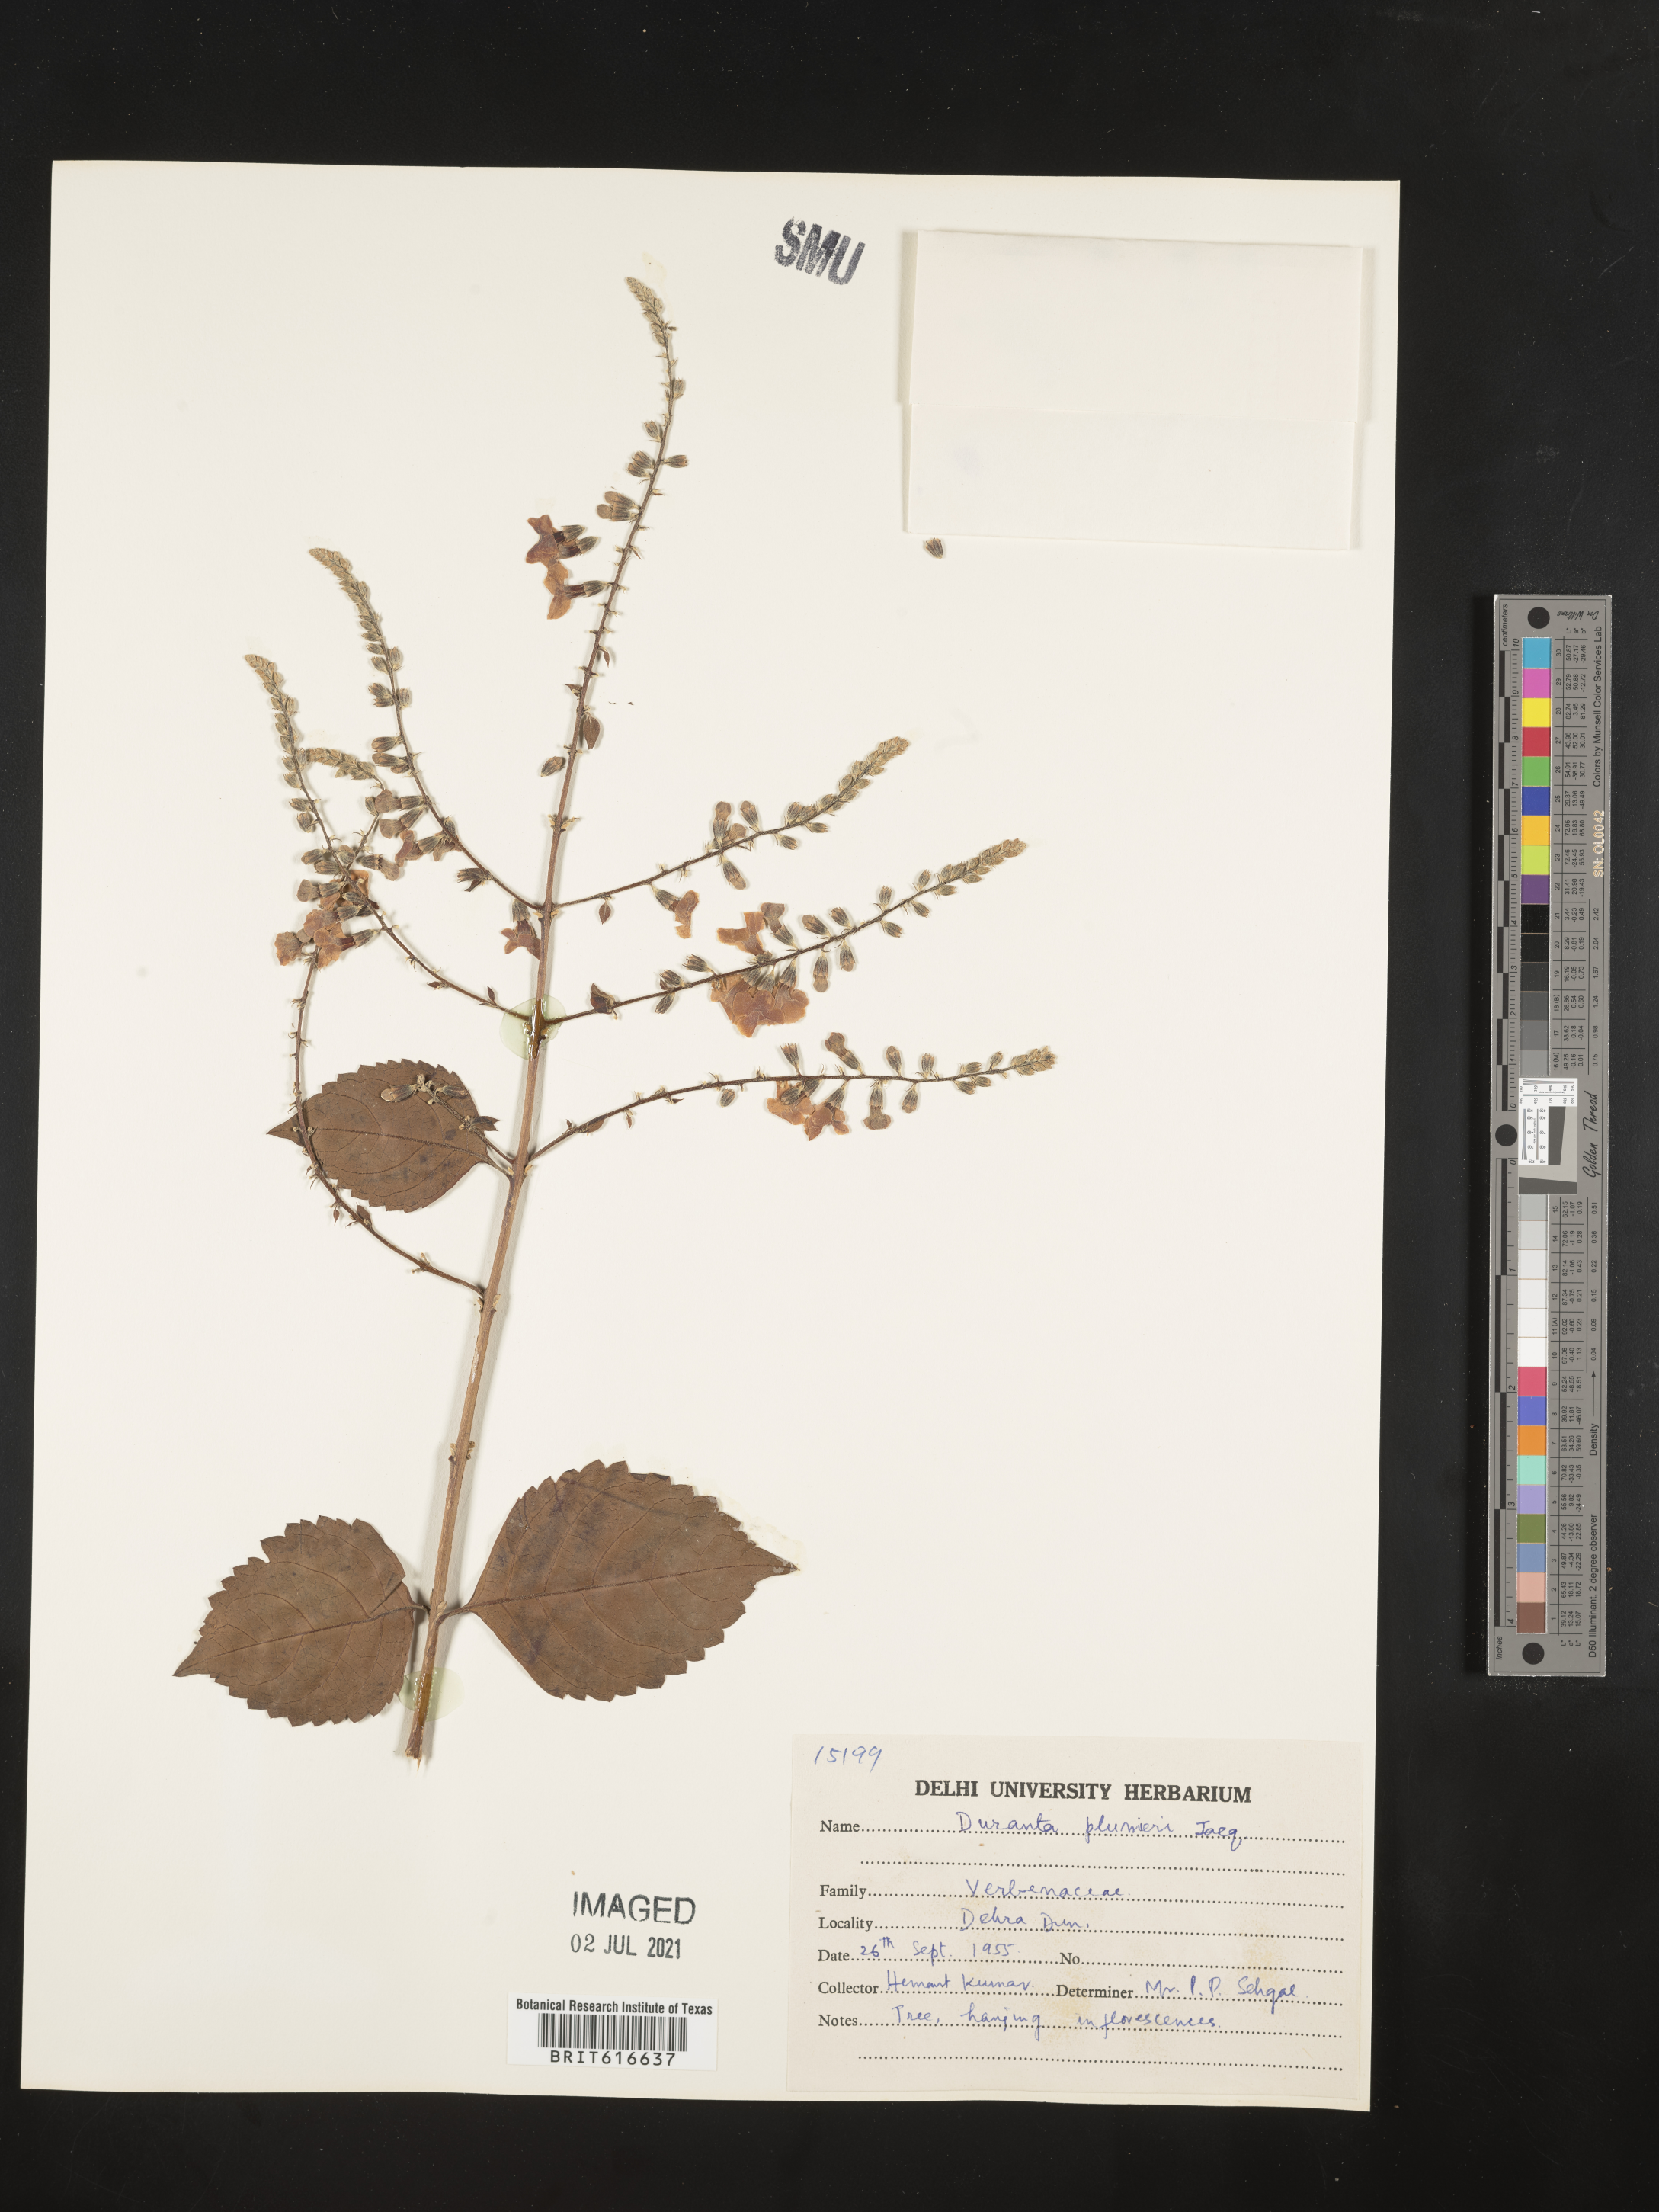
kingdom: Plantae
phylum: Tracheophyta
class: Magnoliopsida
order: Lamiales
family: Verbenaceae
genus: Duranta
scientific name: Duranta erecta
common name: Golden dewdrops
